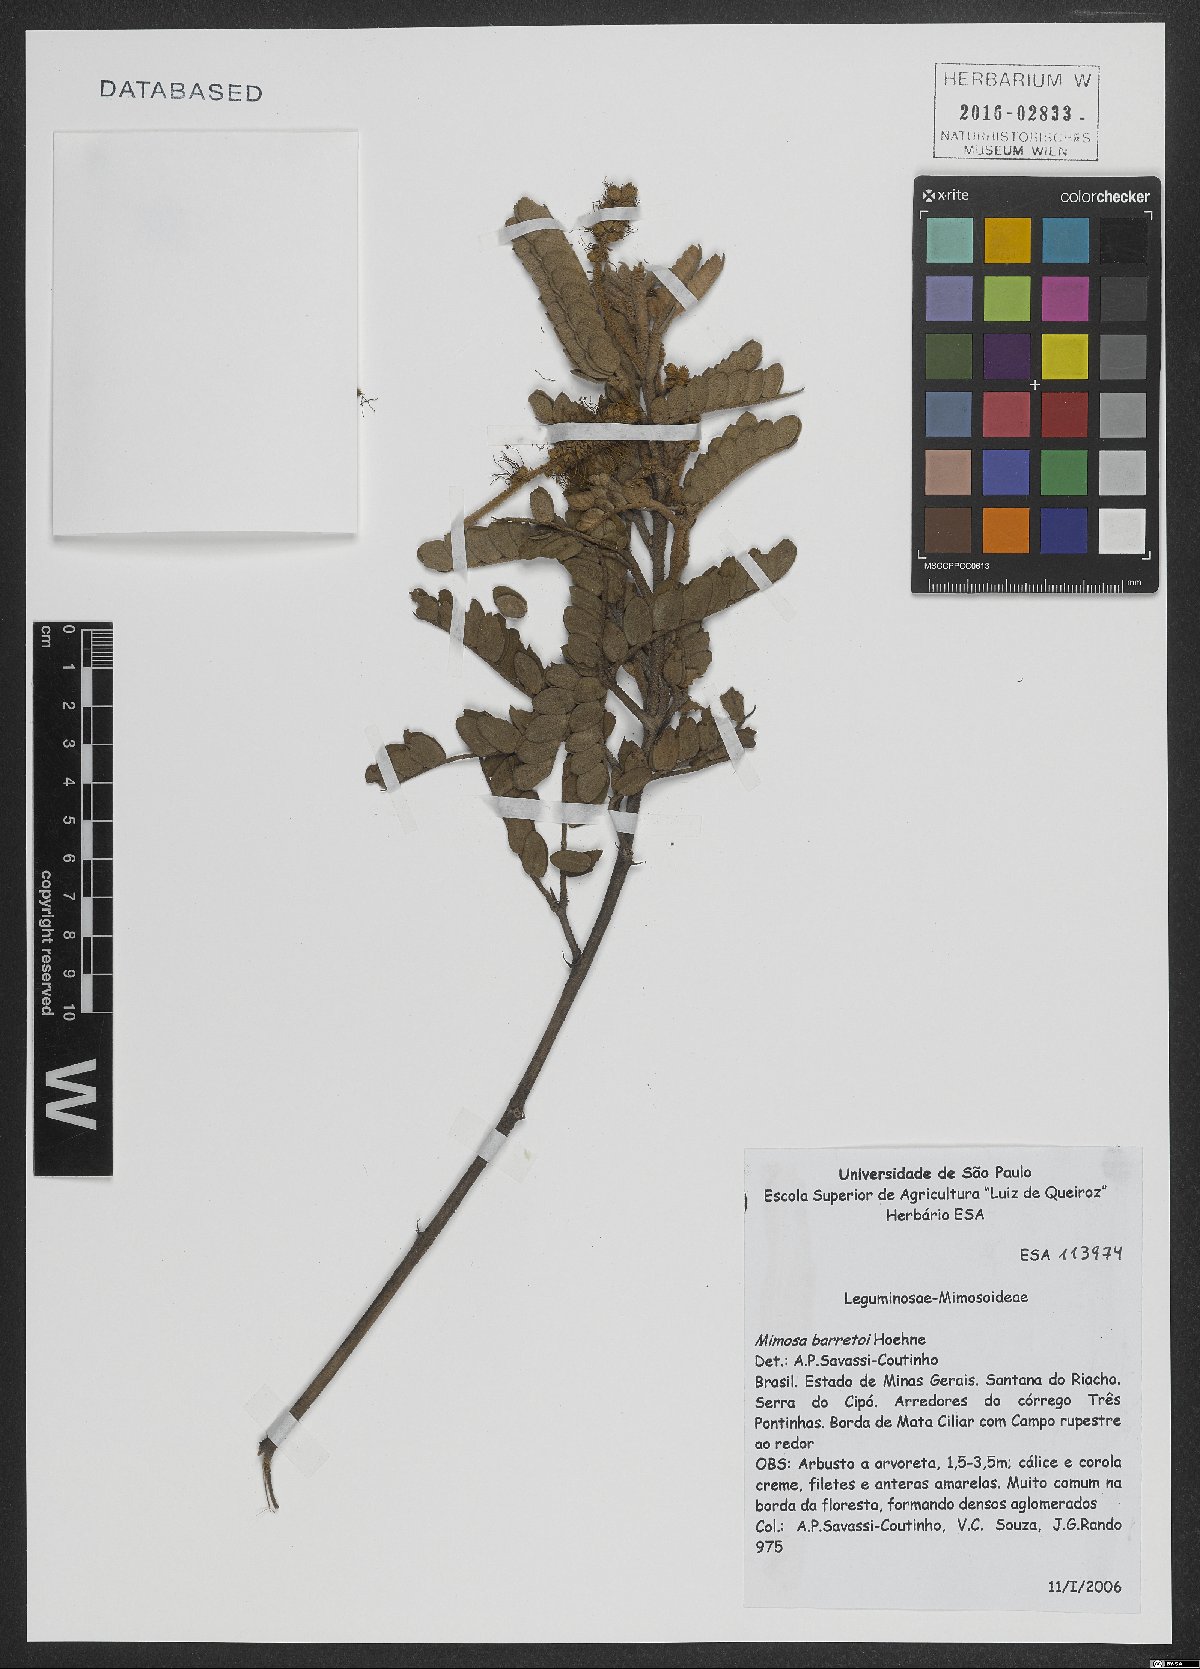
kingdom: Plantae
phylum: Tracheophyta
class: Magnoliopsida
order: Fabales
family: Fabaceae
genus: Mimosa
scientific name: Mimosa barretoi
